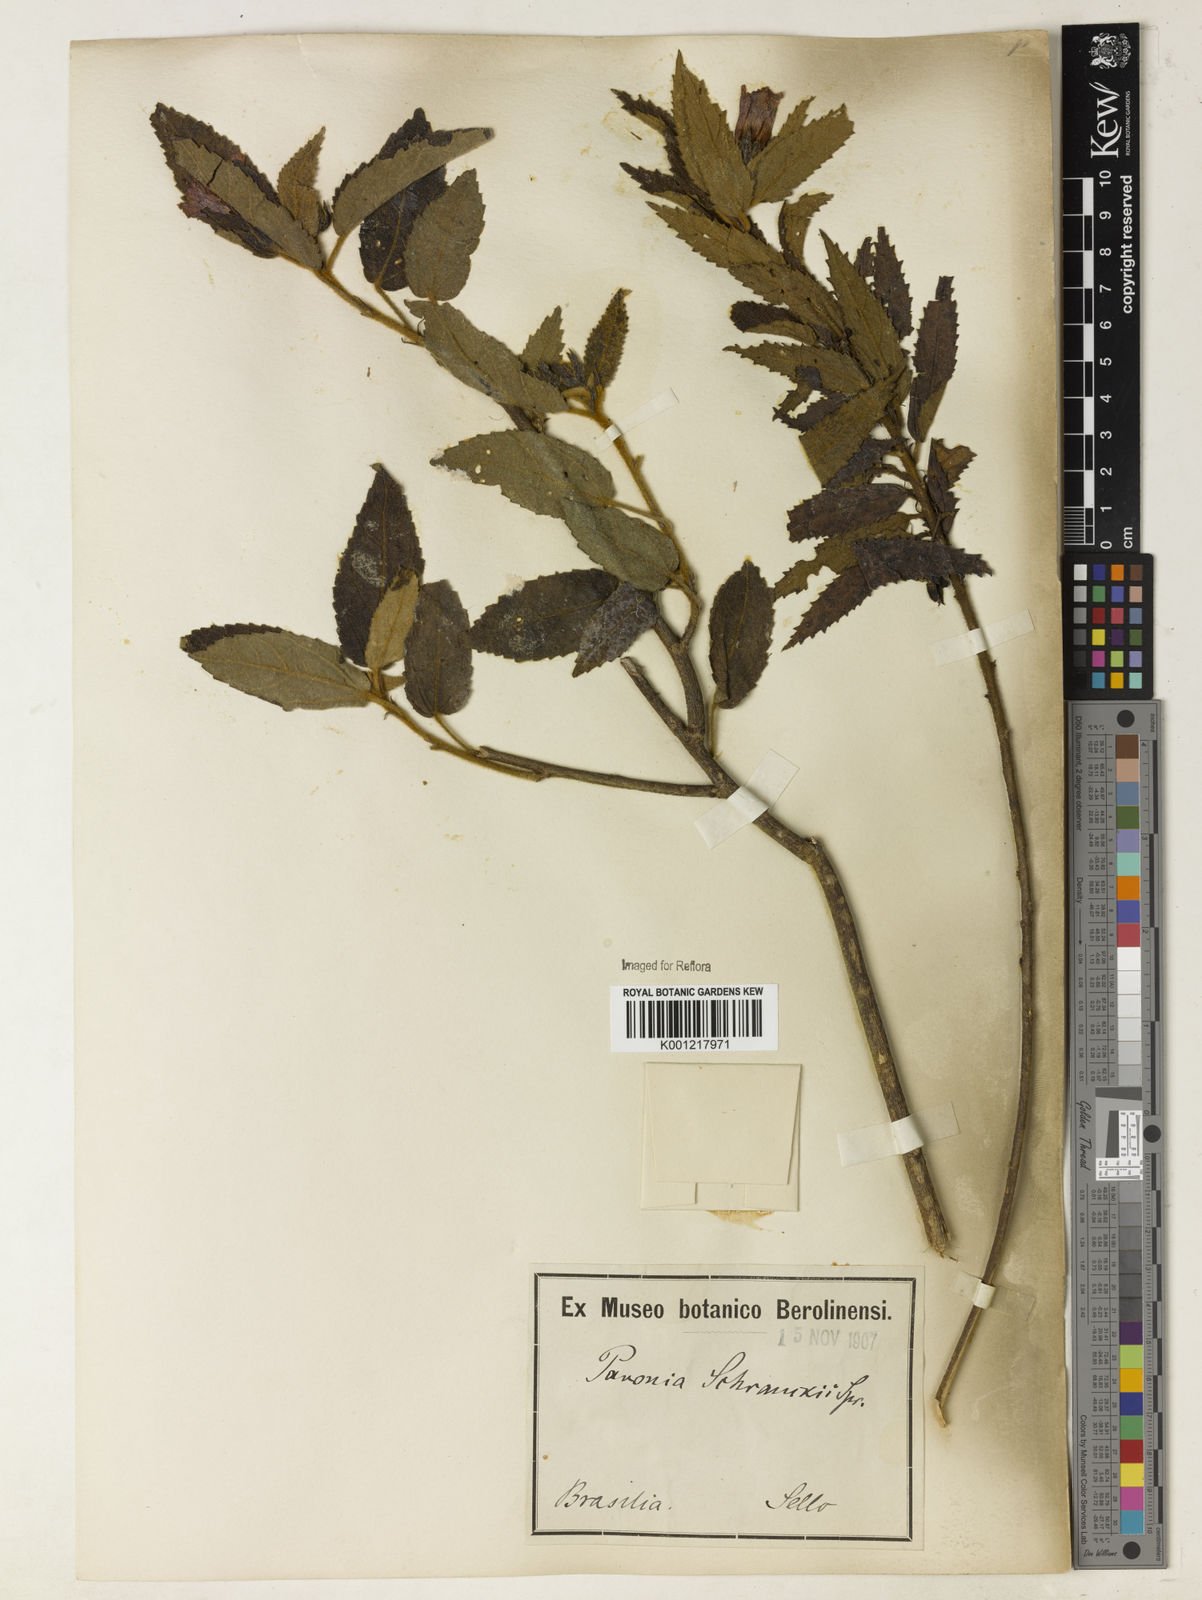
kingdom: Plantae
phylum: Tracheophyta
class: Magnoliopsida
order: Malvales
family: Malvaceae
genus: Pavonia
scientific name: Pavonia schrankii
